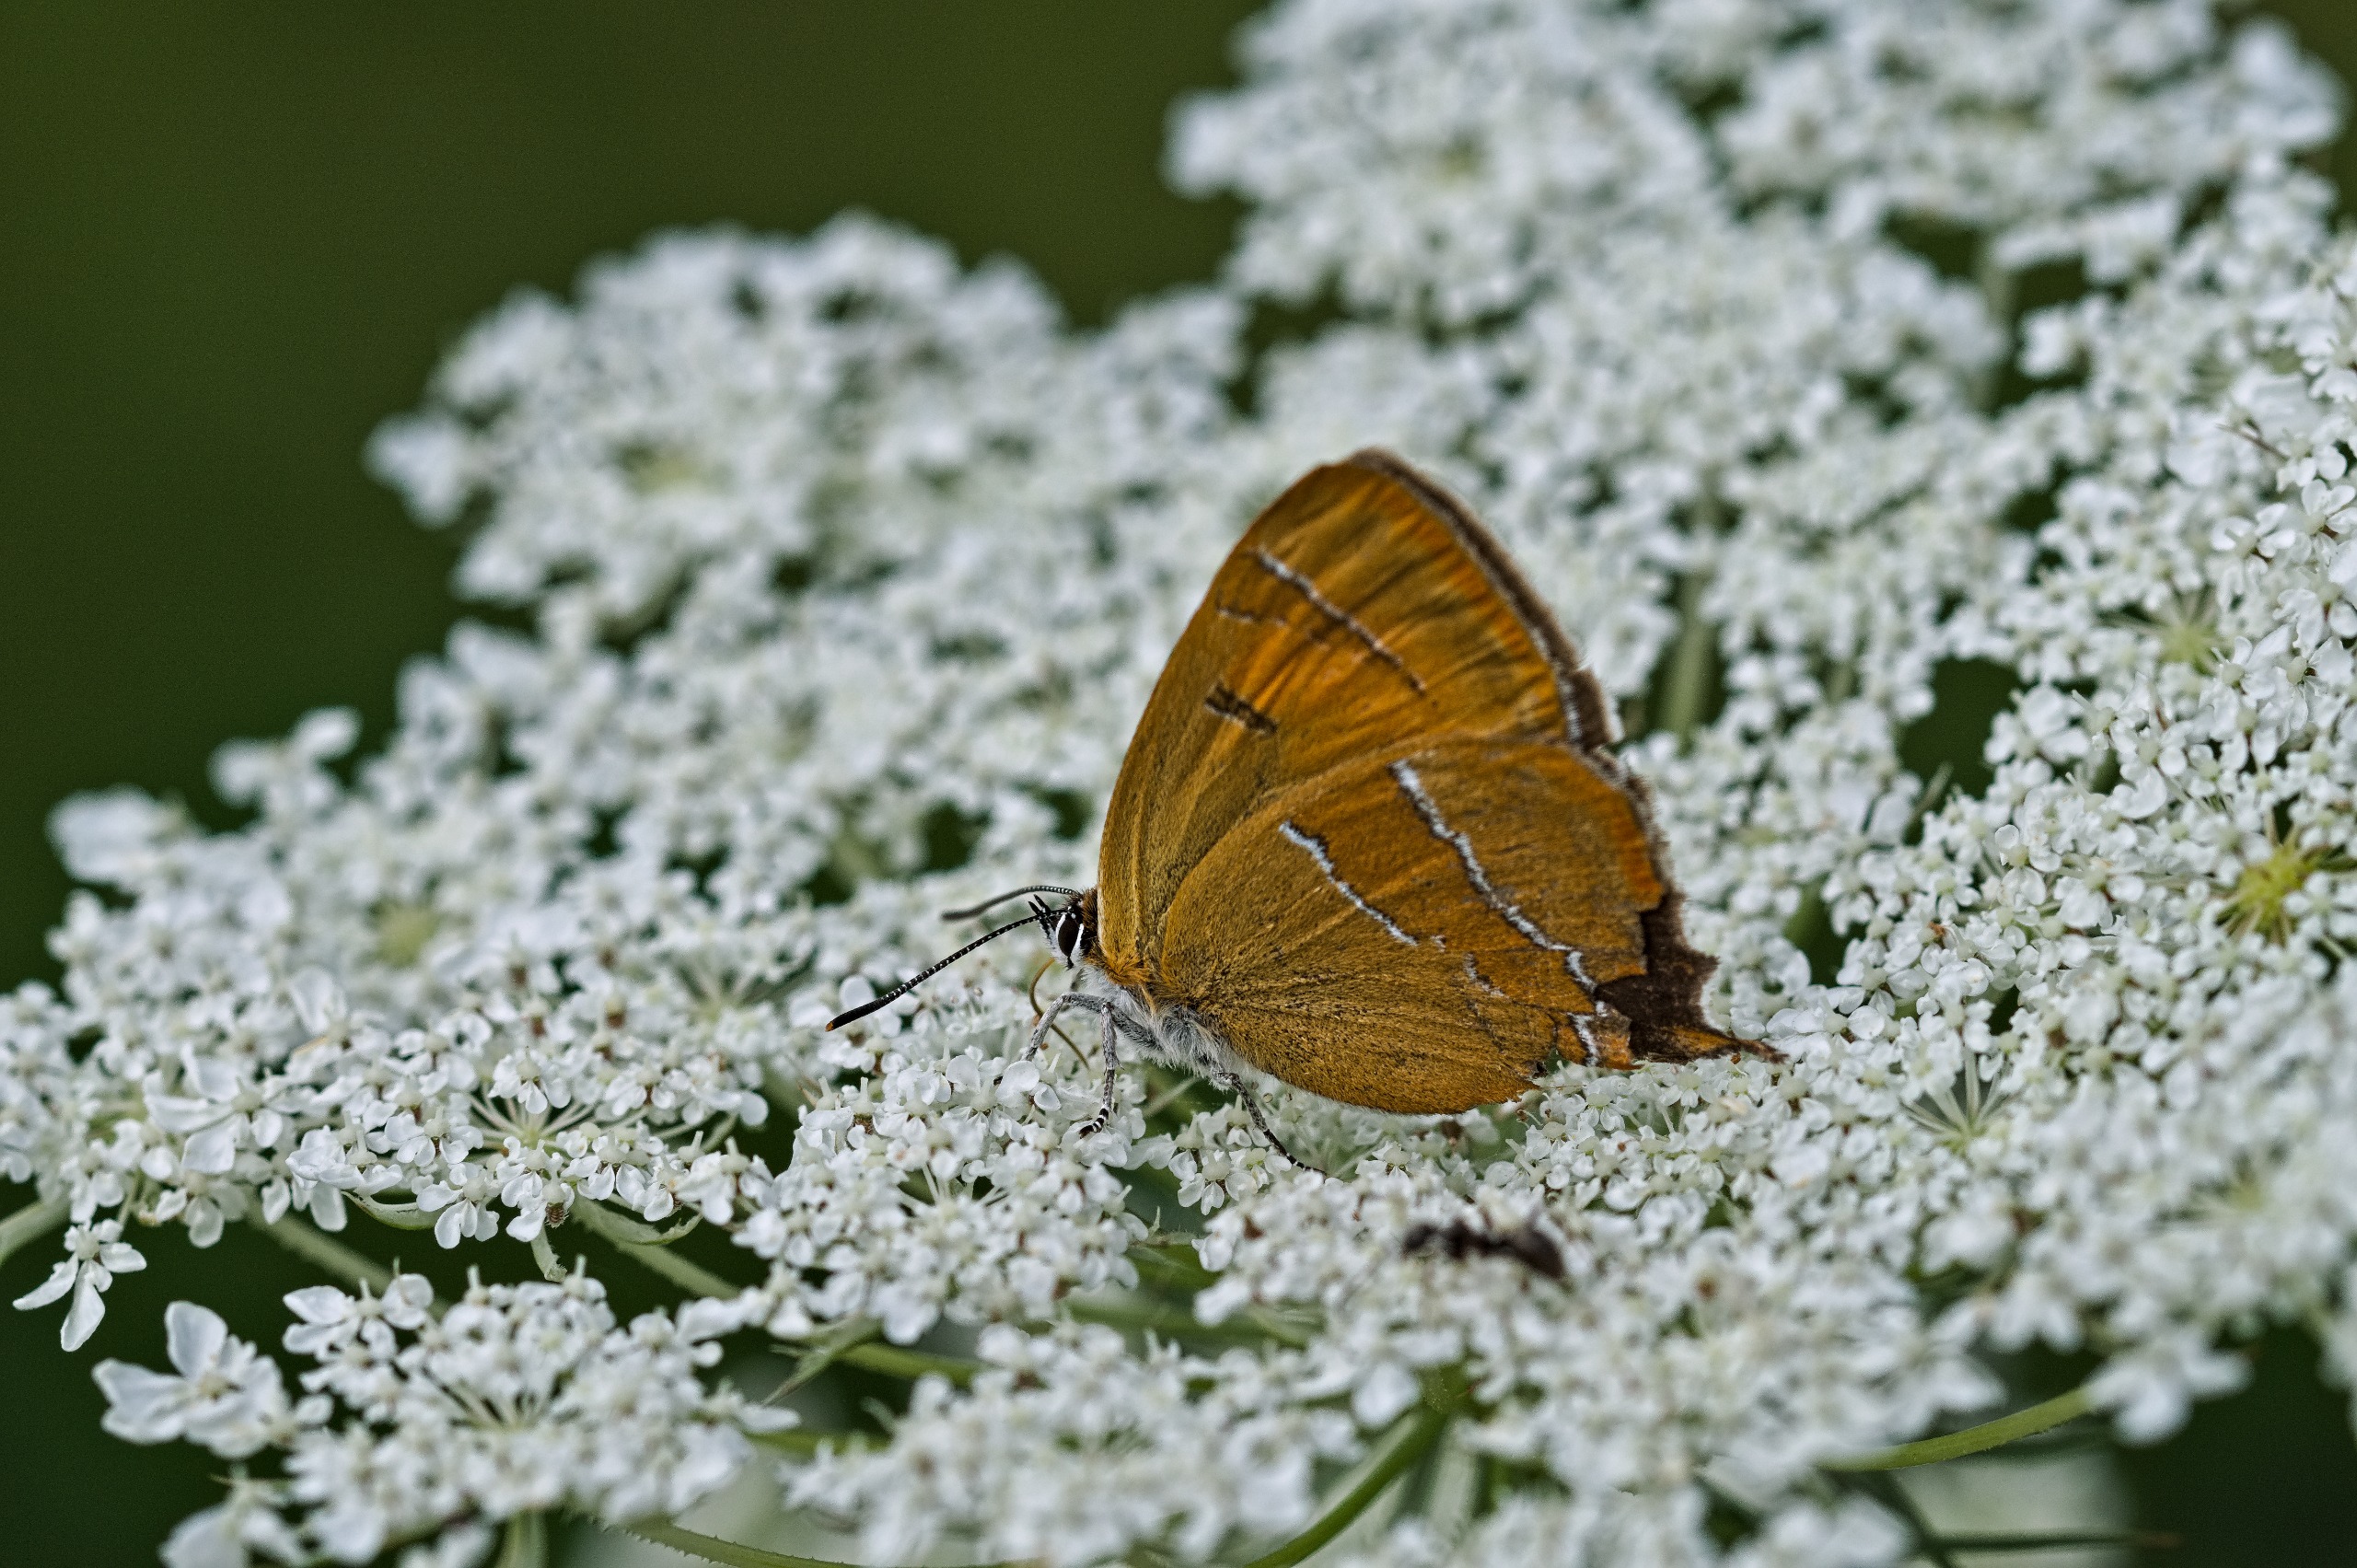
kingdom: Animalia
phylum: Arthropoda
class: Insecta
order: Lepidoptera
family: Lycaenidae
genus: Thecla
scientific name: Thecla betulae
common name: Guldhale
